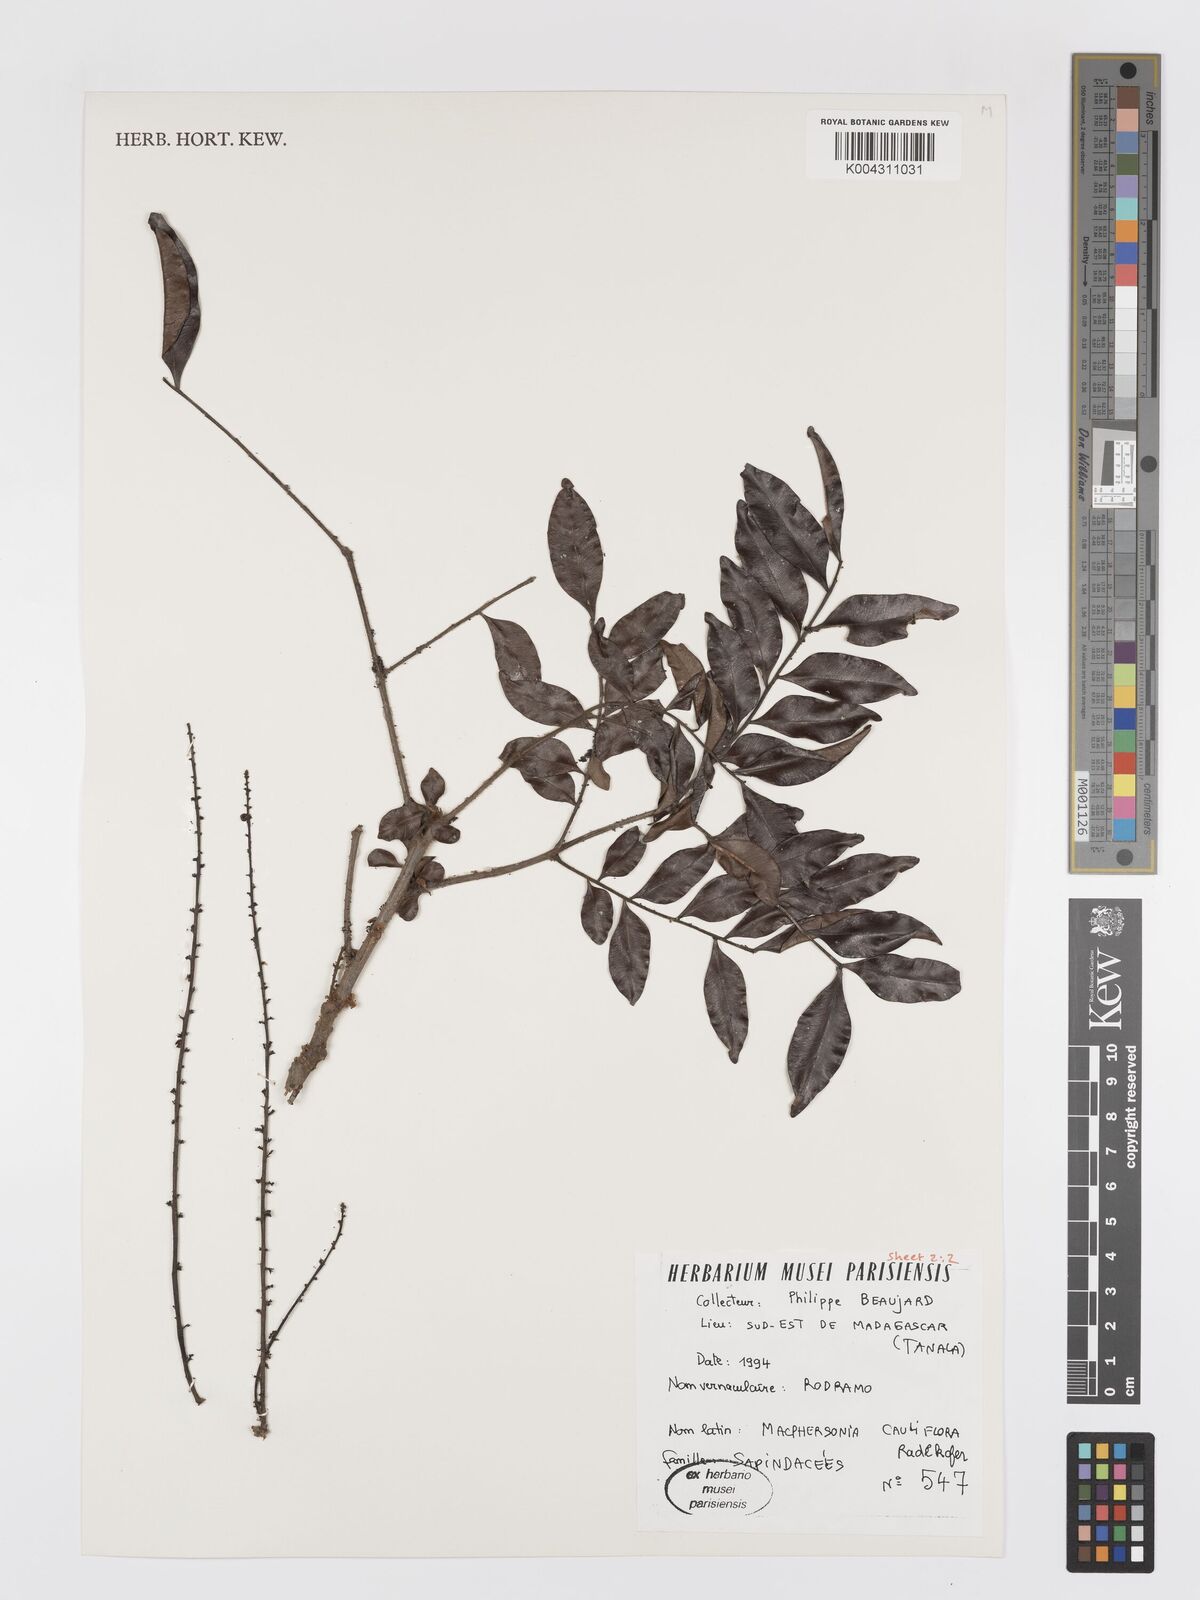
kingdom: Plantae
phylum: Tracheophyta
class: Magnoliopsida
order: Sapindales
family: Sapindaceae
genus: Macphersonia
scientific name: Macphersonia cauliflora
